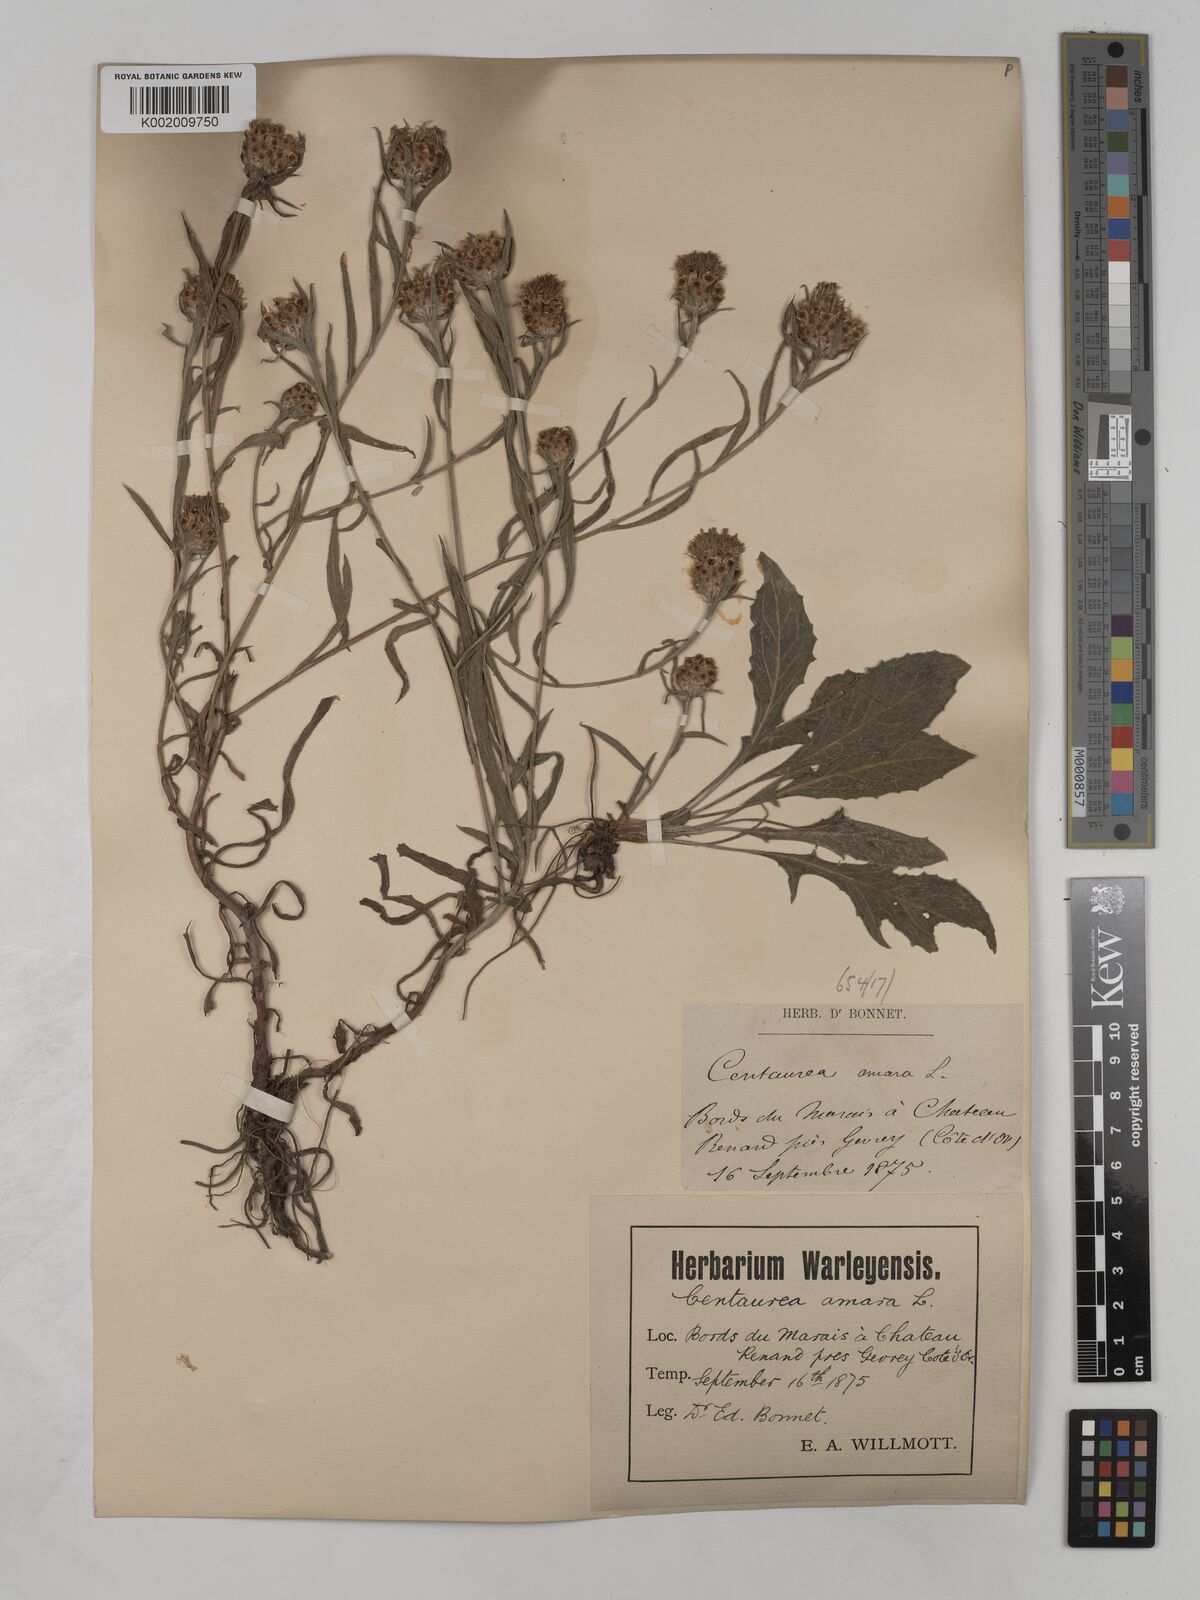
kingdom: Plantae
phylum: Tracheophyta
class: Magnoliopsida
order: Asterales
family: Asteraceae
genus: Centaurea
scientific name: Centaurea timbalii
